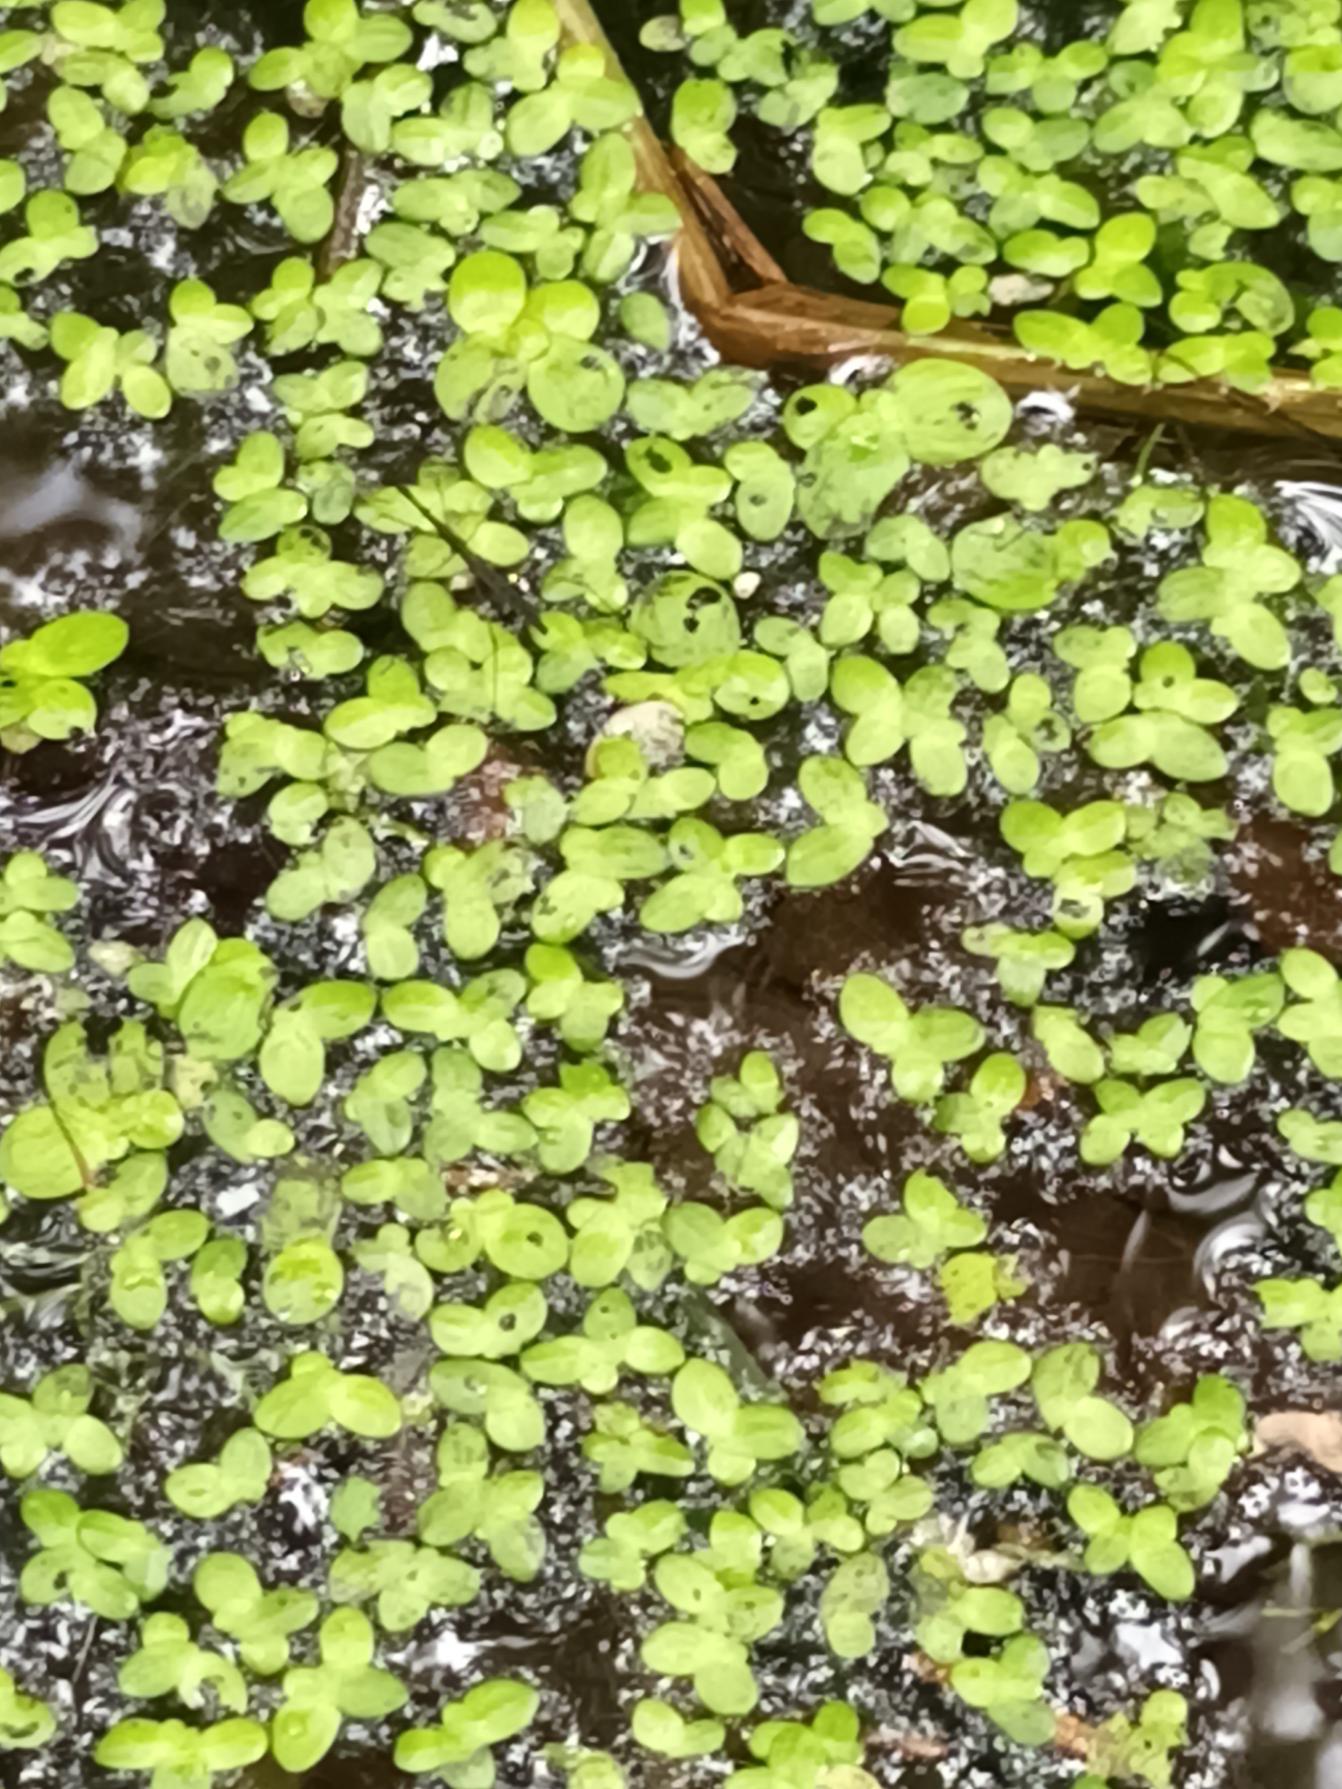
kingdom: Plantae
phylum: Tracheophyta
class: Liliopsida
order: Alismatales
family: Araceae
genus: Lemna
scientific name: Lemna minor
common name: Liden andemad
